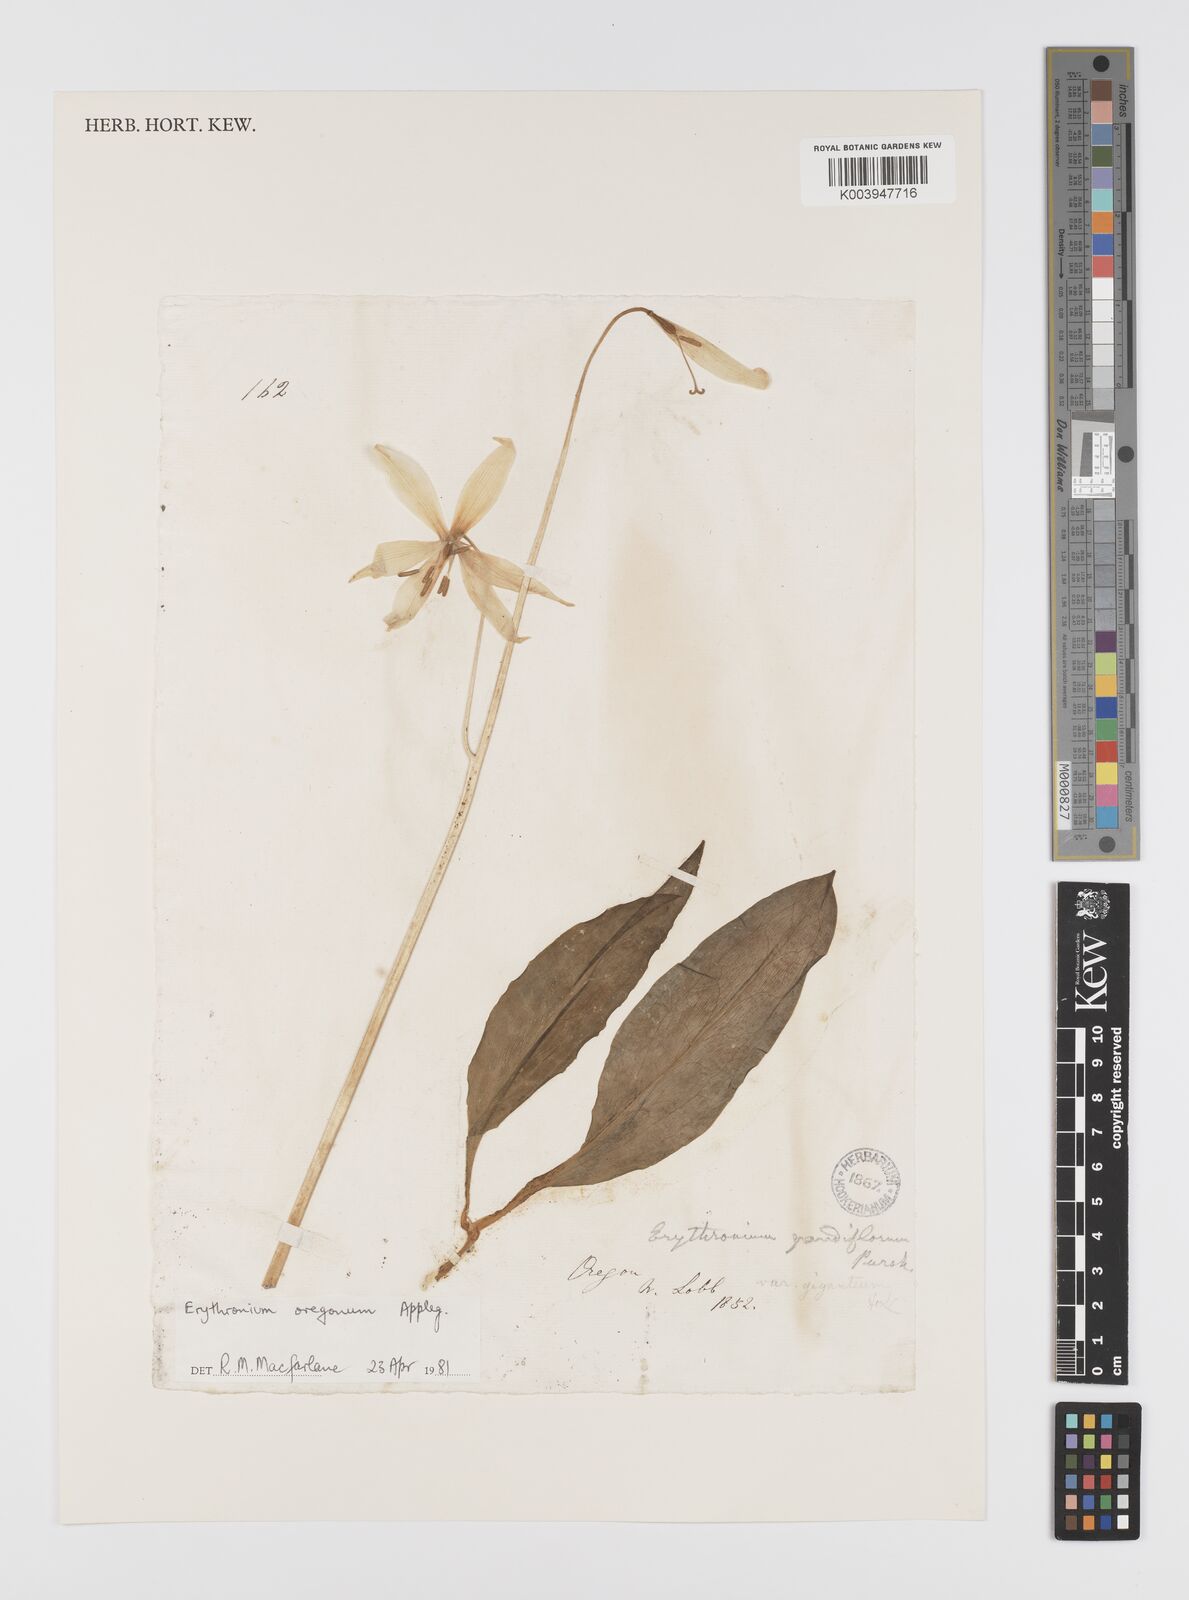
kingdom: Plantae
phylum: Tracheophyta
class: Liliopsida
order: Liliales
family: Liliaceae
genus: Erythronium
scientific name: Erythronium oregonum
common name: Giant adder's-tongue
